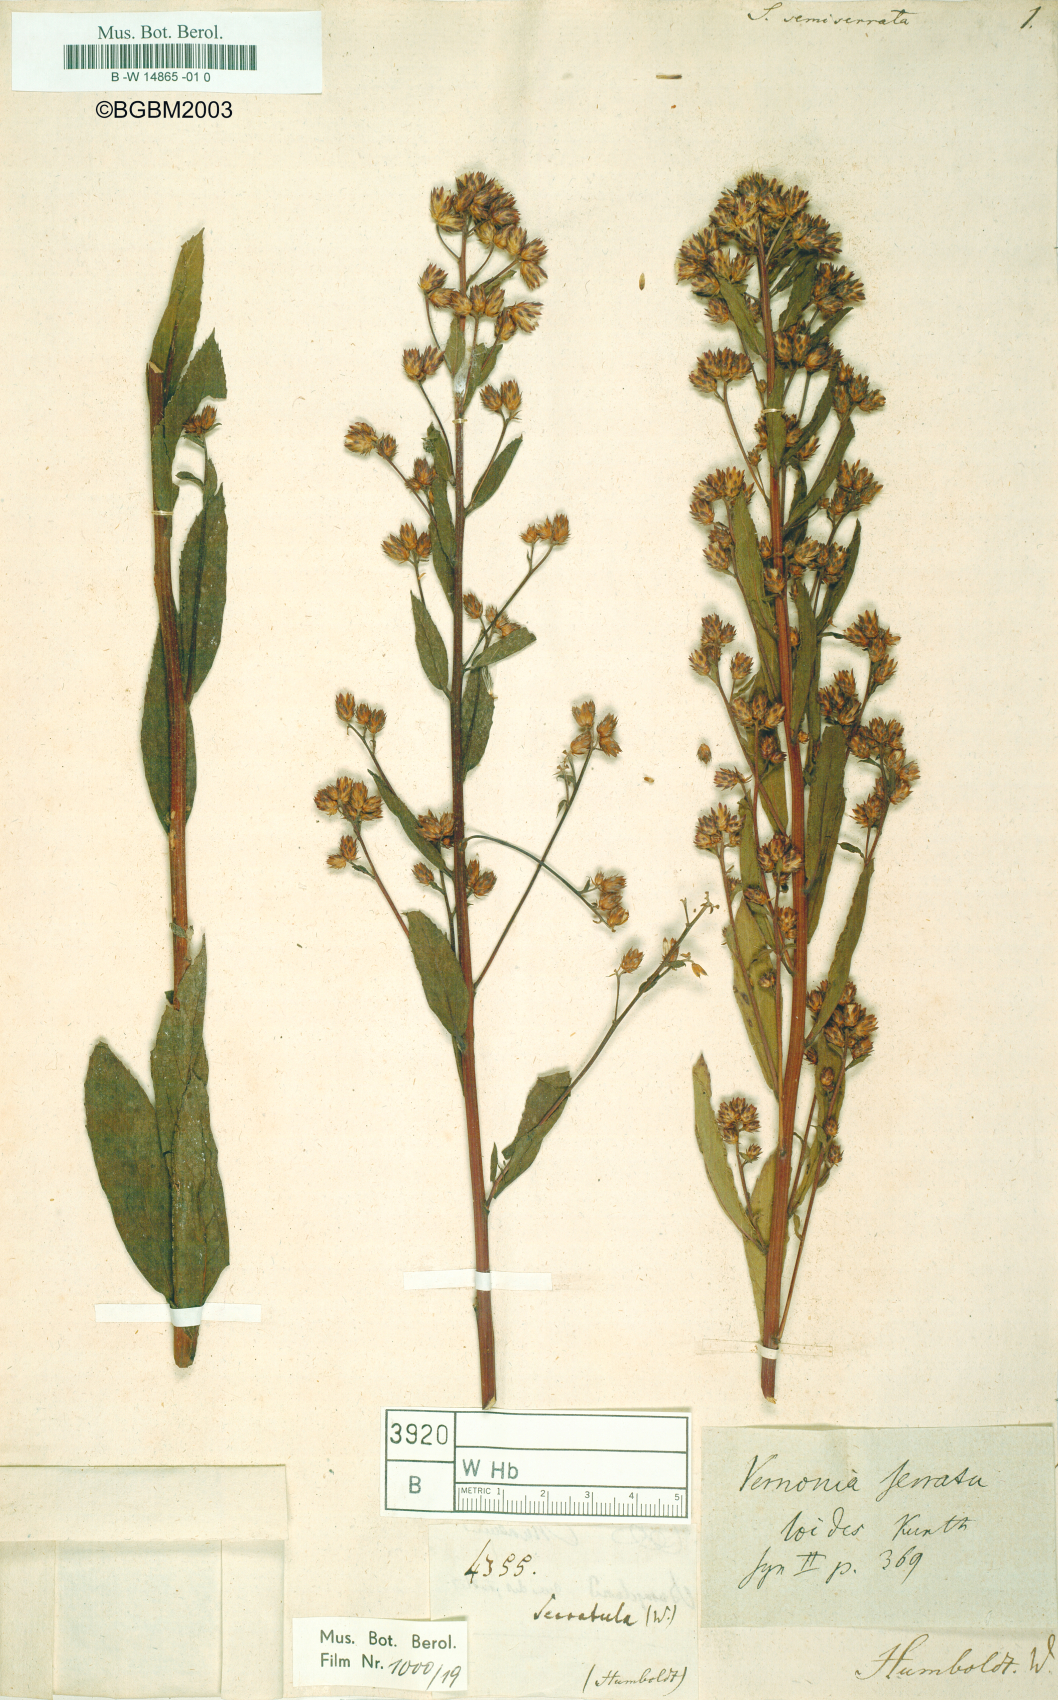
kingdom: Plantae
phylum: Tracheophyta
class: Magnoliopsida
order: Asterales
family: Asteraceae
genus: Vernonanthura
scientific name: Vernonanthura serratuloides
